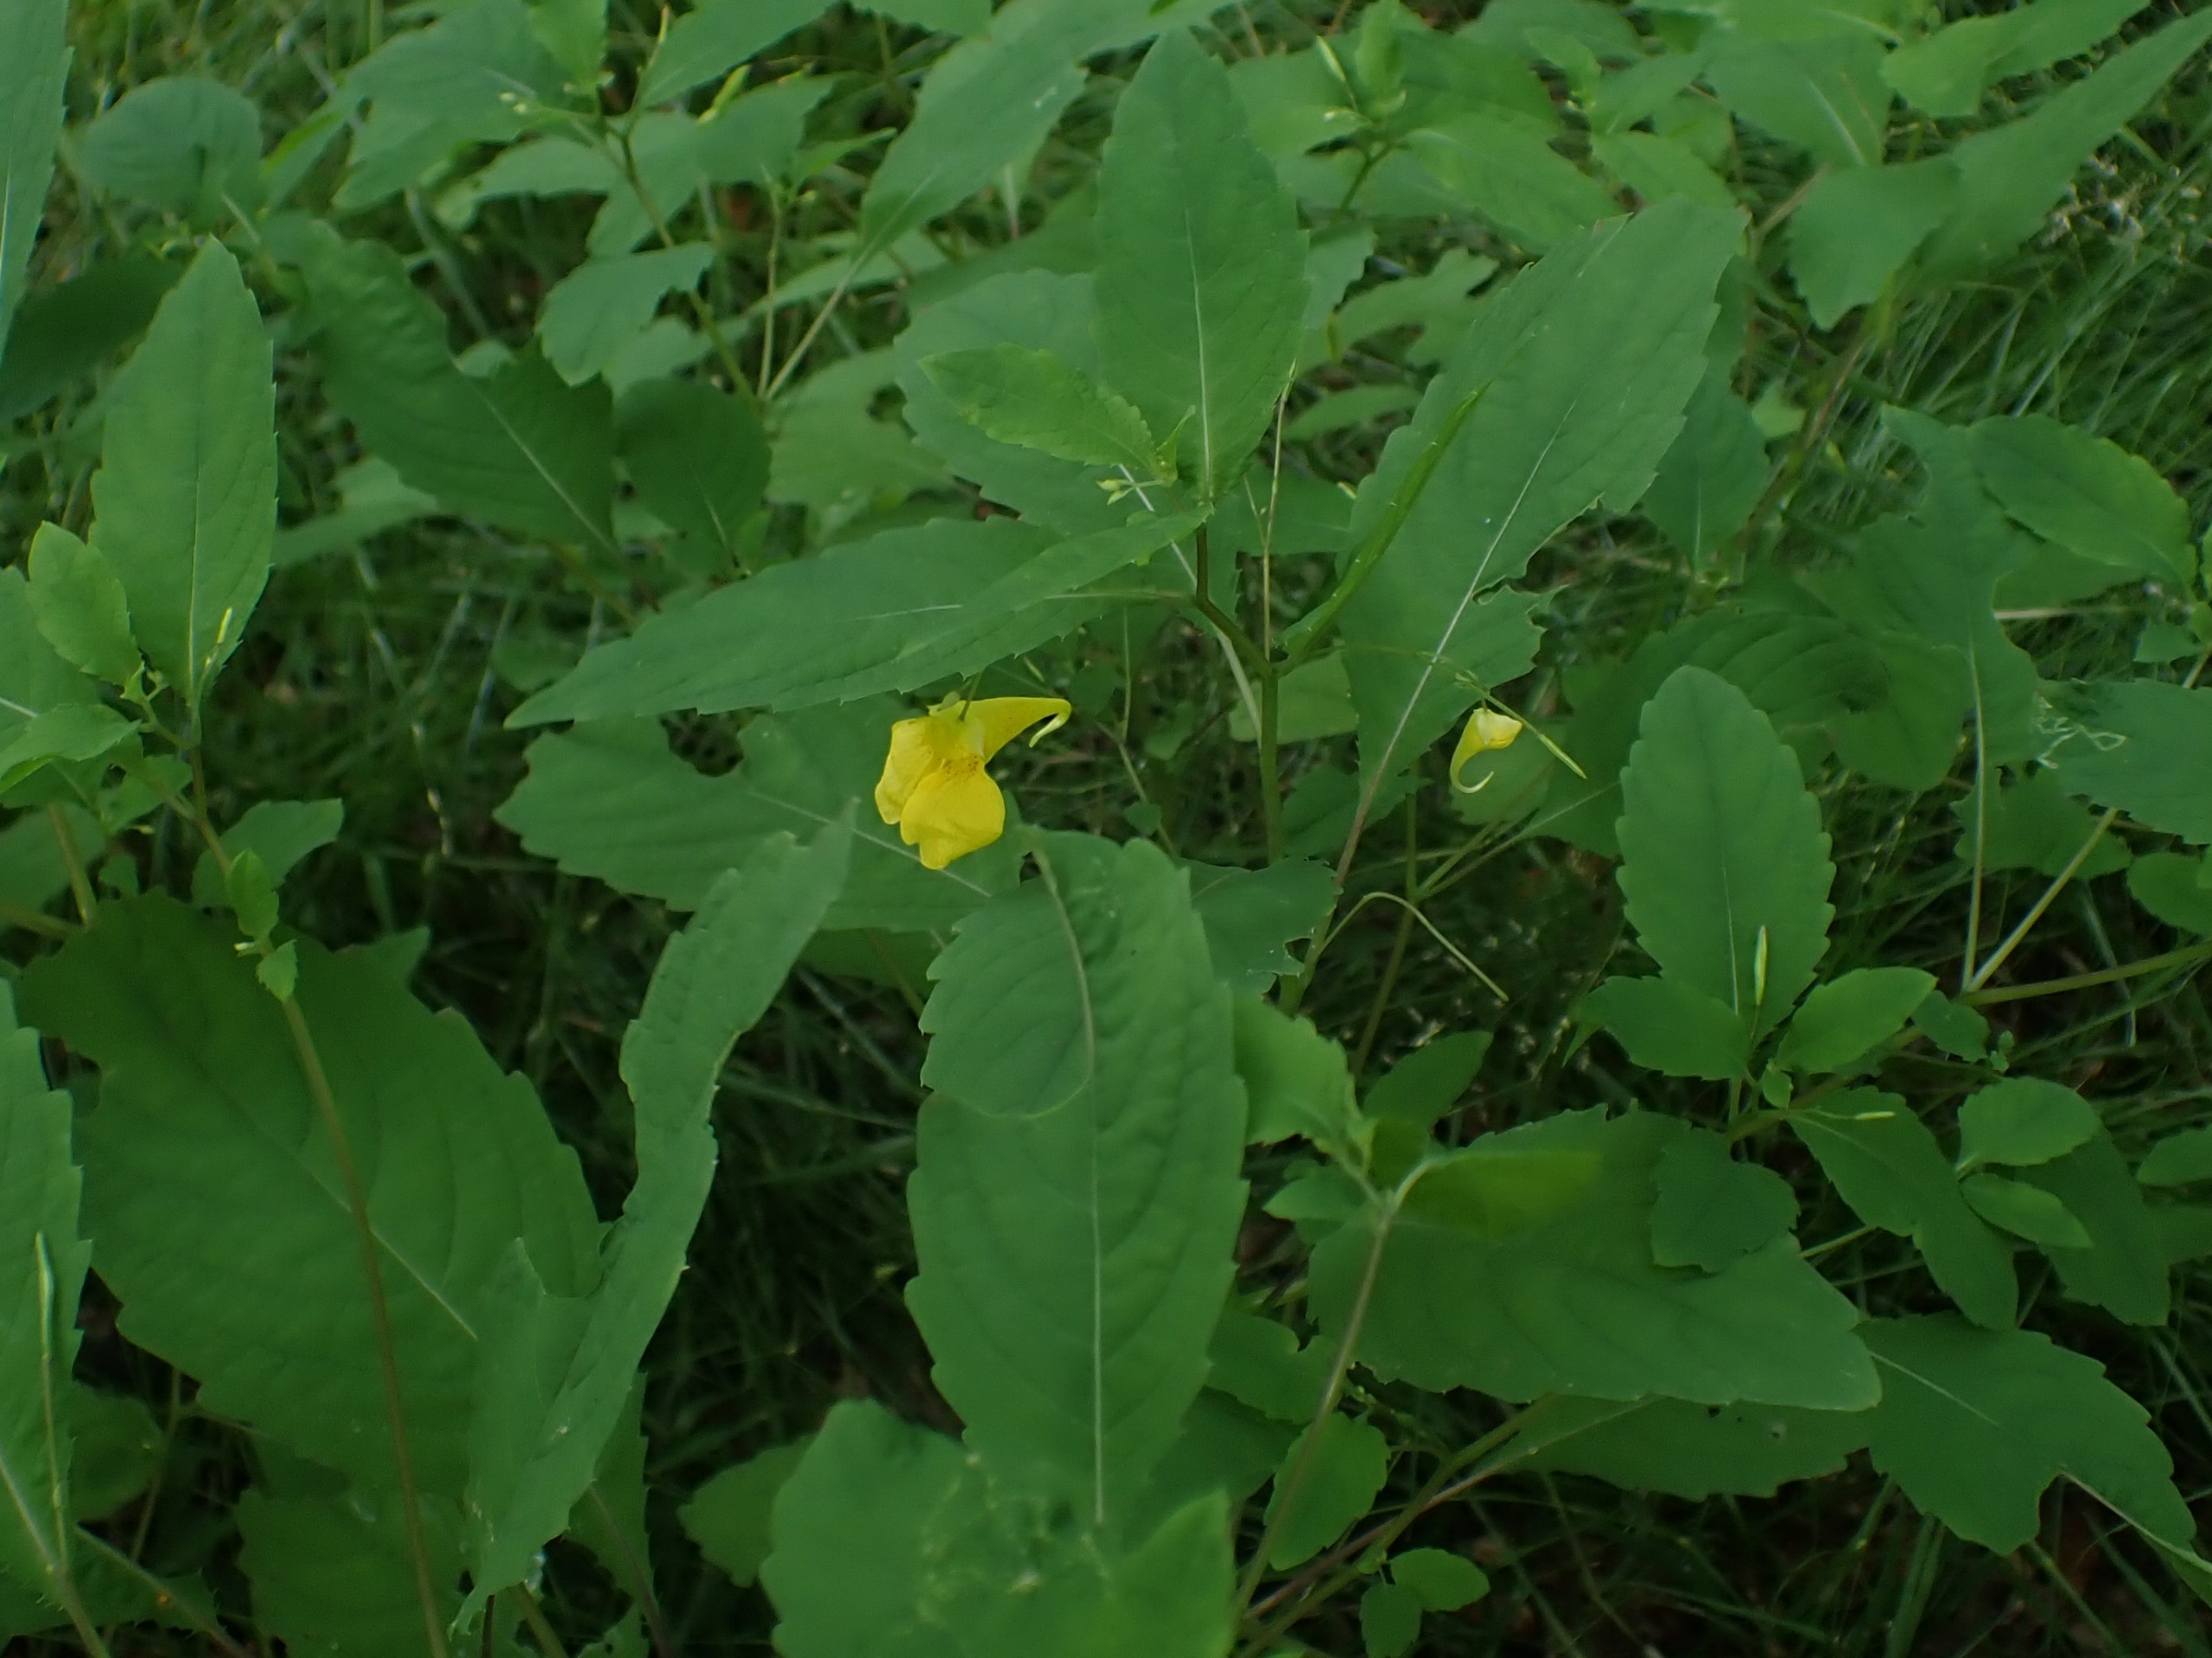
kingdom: Plantae
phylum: Tracheophyta
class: Magnoliopsida
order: Ericales
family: Balsaminaceae
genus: Impatiens
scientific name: Impatiens noli-tangere
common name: Spring-balsamin
